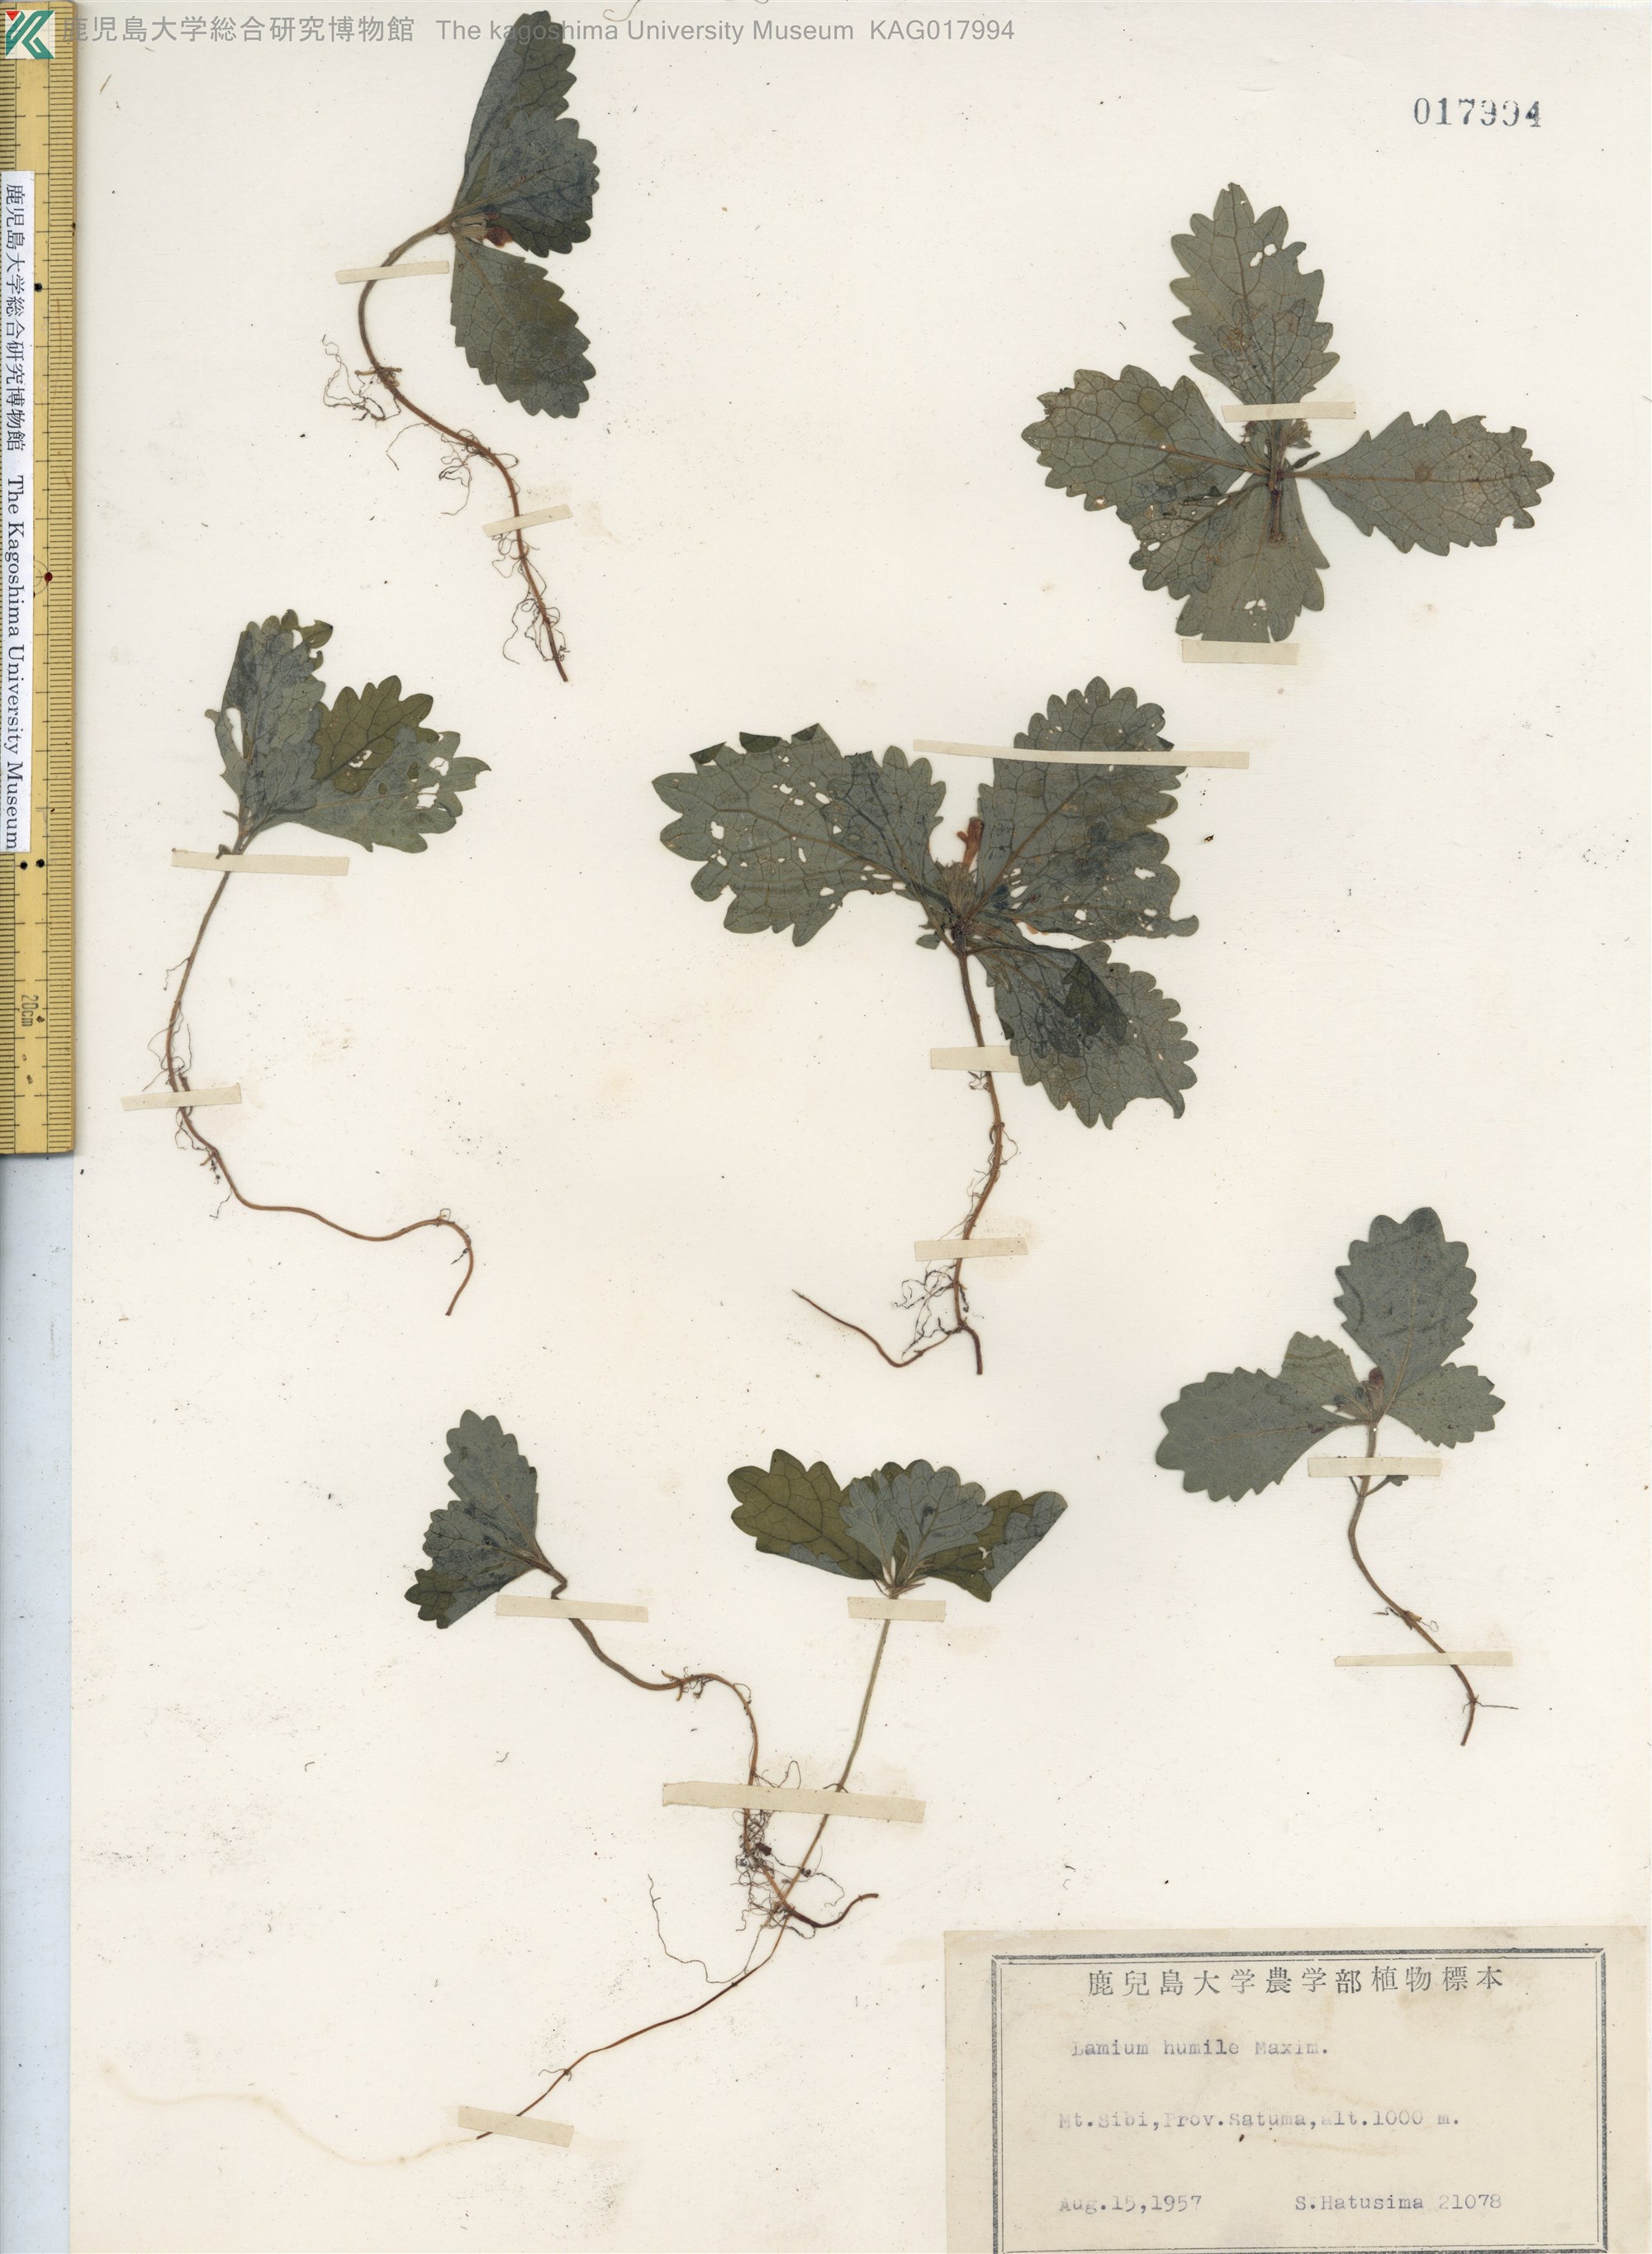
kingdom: Plantae
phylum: Tracheophyta
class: Magnoliopsida
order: Lamiales
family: Lamiaceae
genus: Ajugoides
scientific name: Ajugoides humilis
